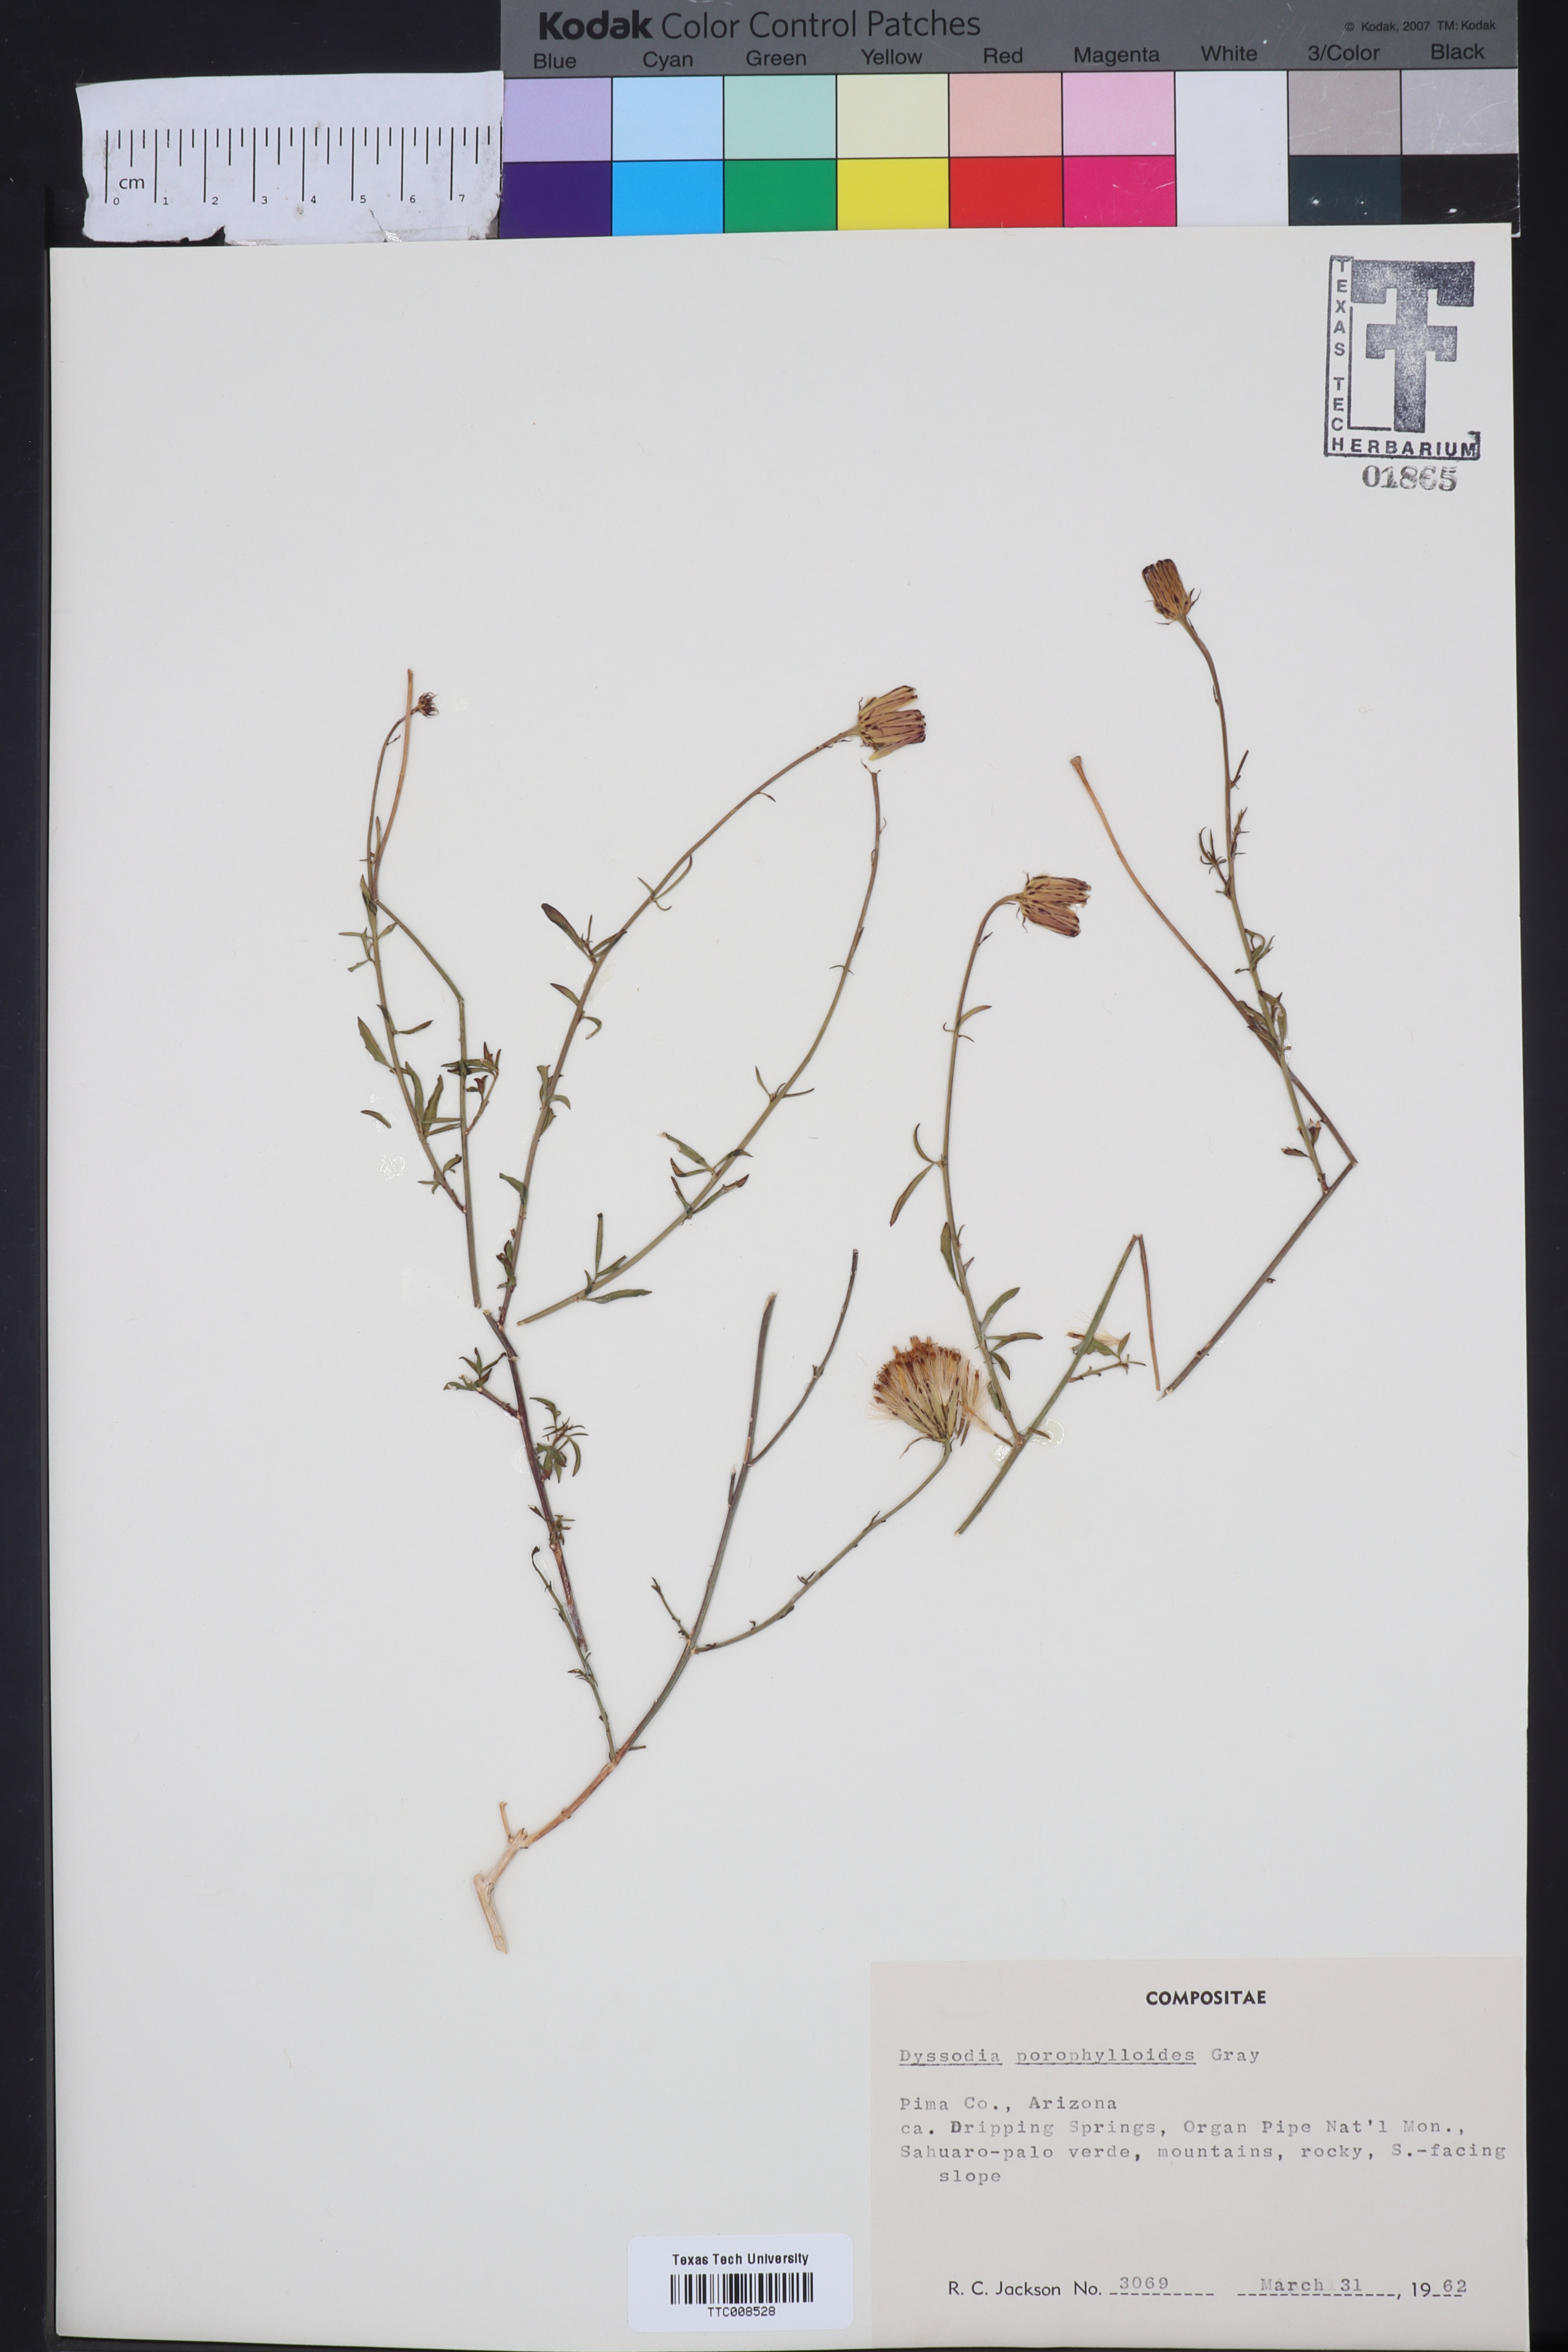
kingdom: Plantae
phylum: Tracheophyta
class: Magnoliopsida
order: Asterales
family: Asteraceae
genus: Adenophyllum
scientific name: Adenophyllum porophylloides
